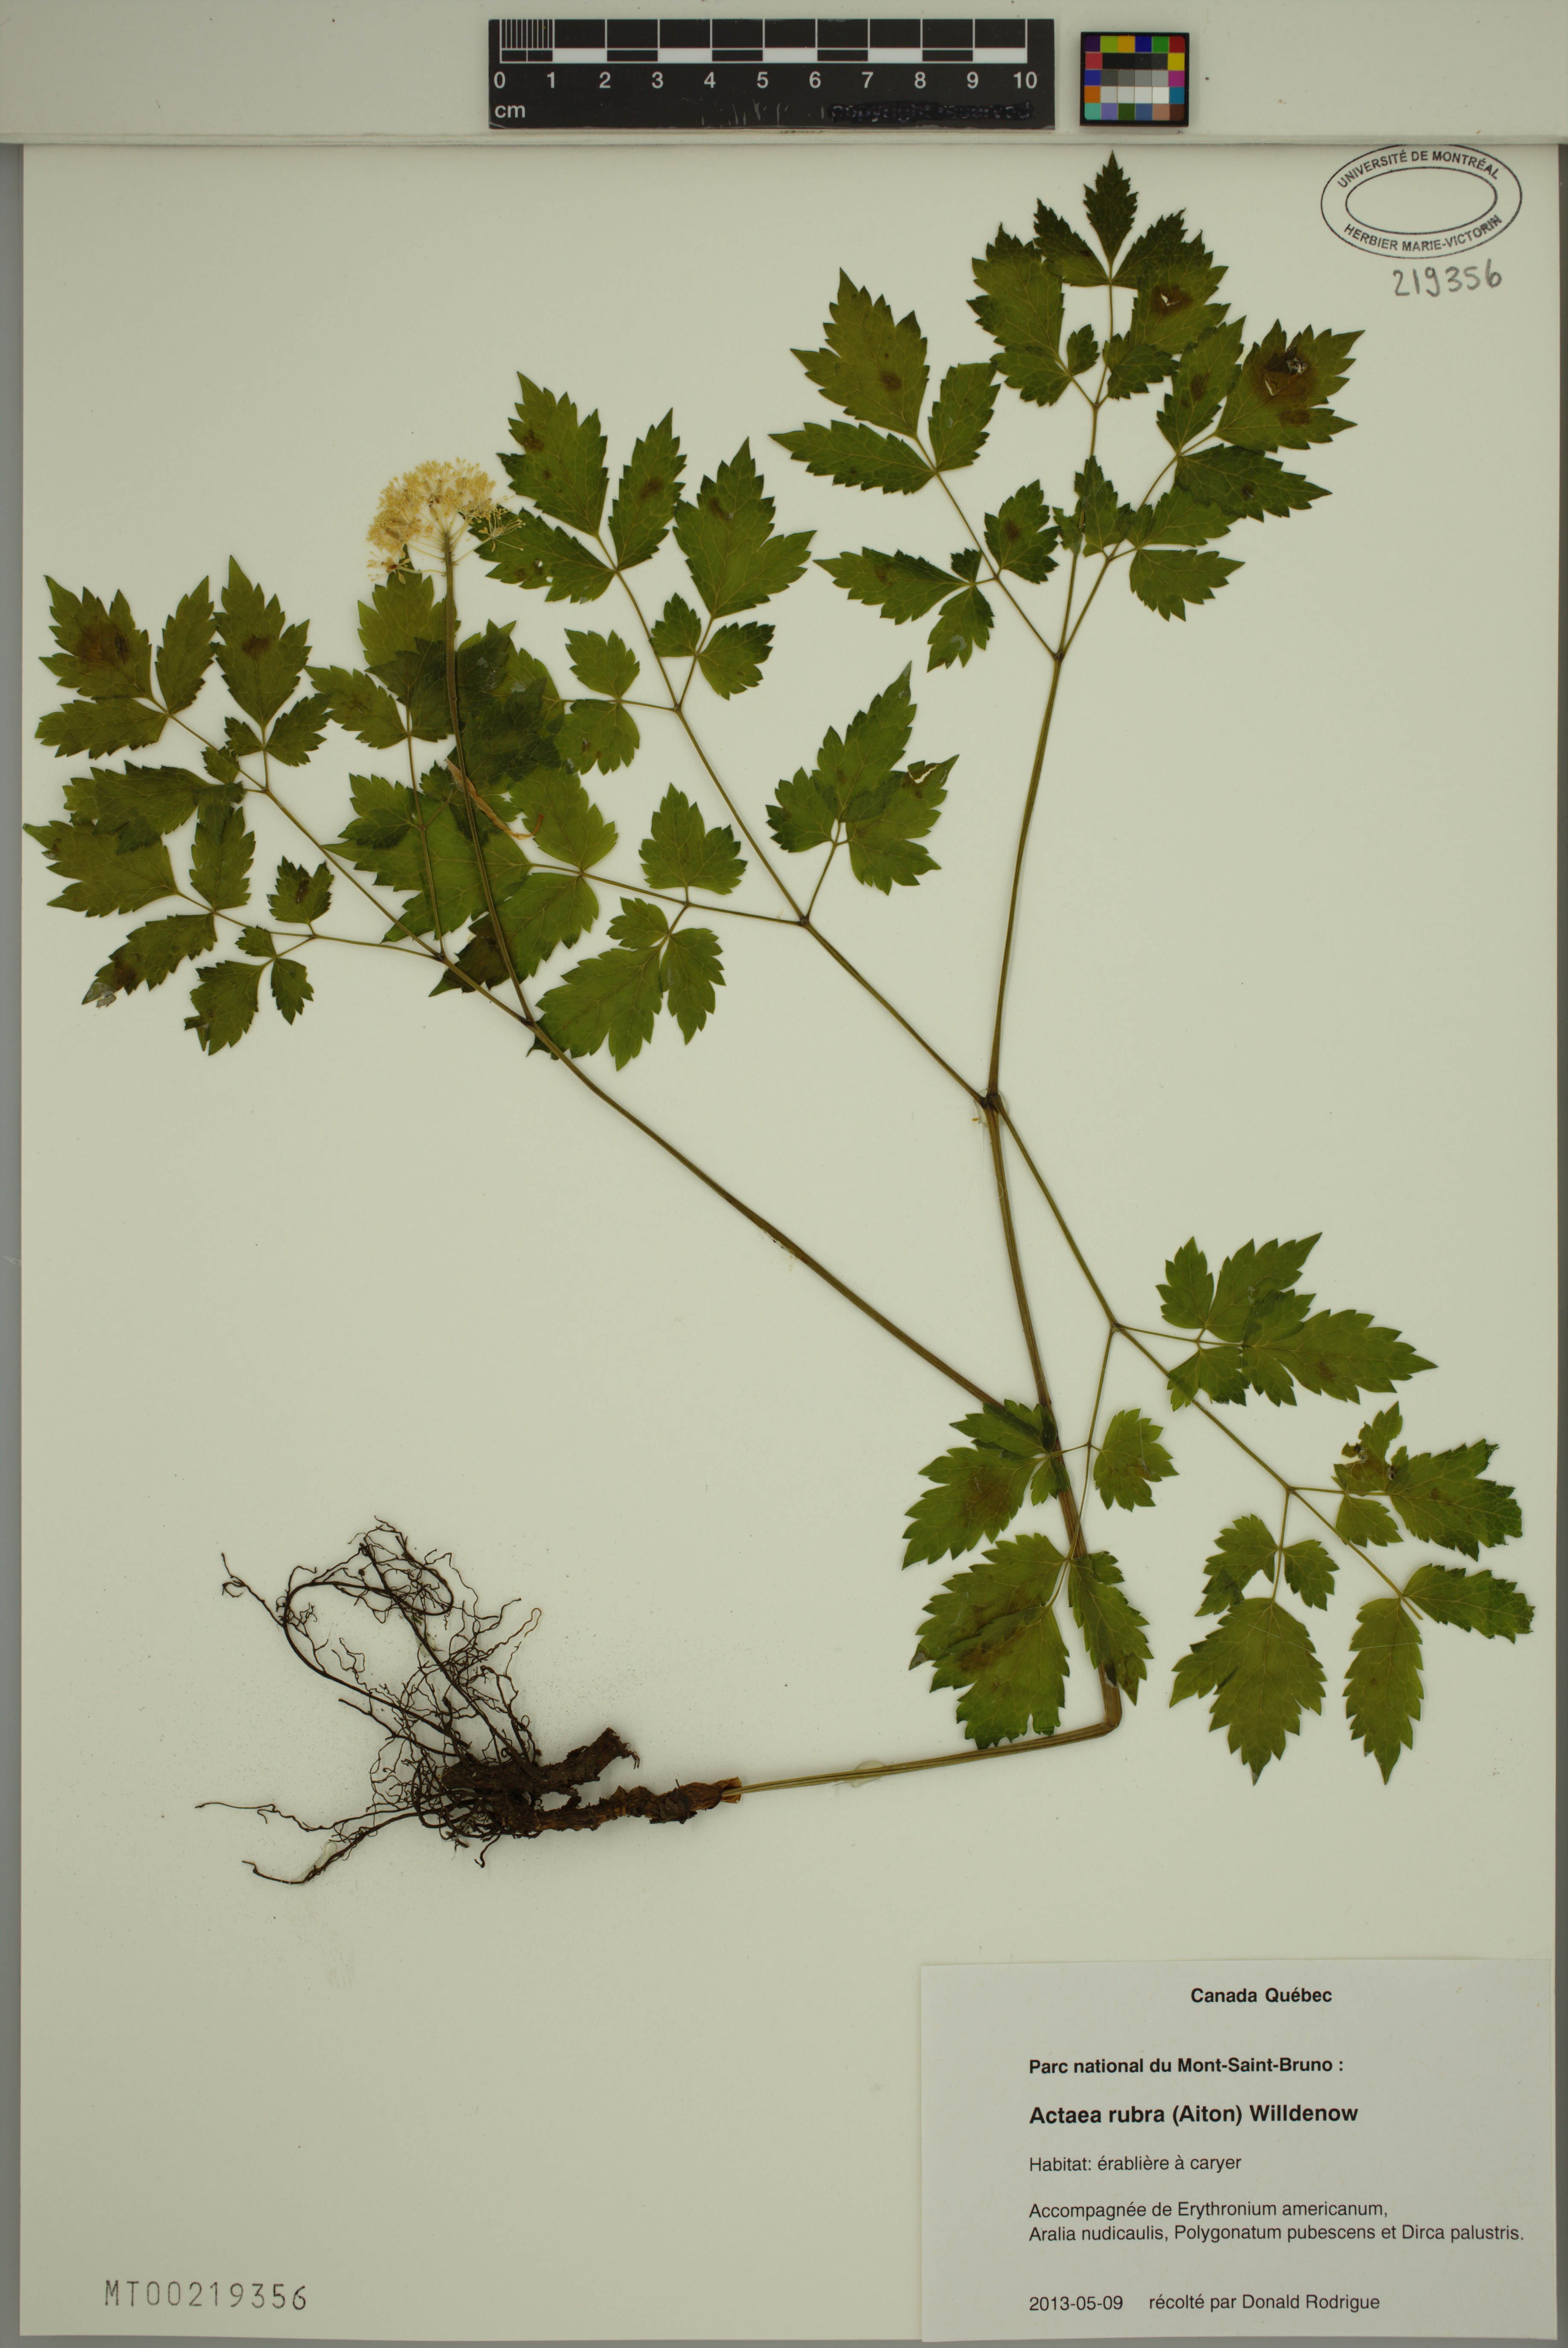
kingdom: Plantae
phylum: Tracheophyta
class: Magnoliopsida
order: Ranunculales
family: Ranunculaceae
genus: Actaea
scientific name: Actaea rubra
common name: Red baneberry
